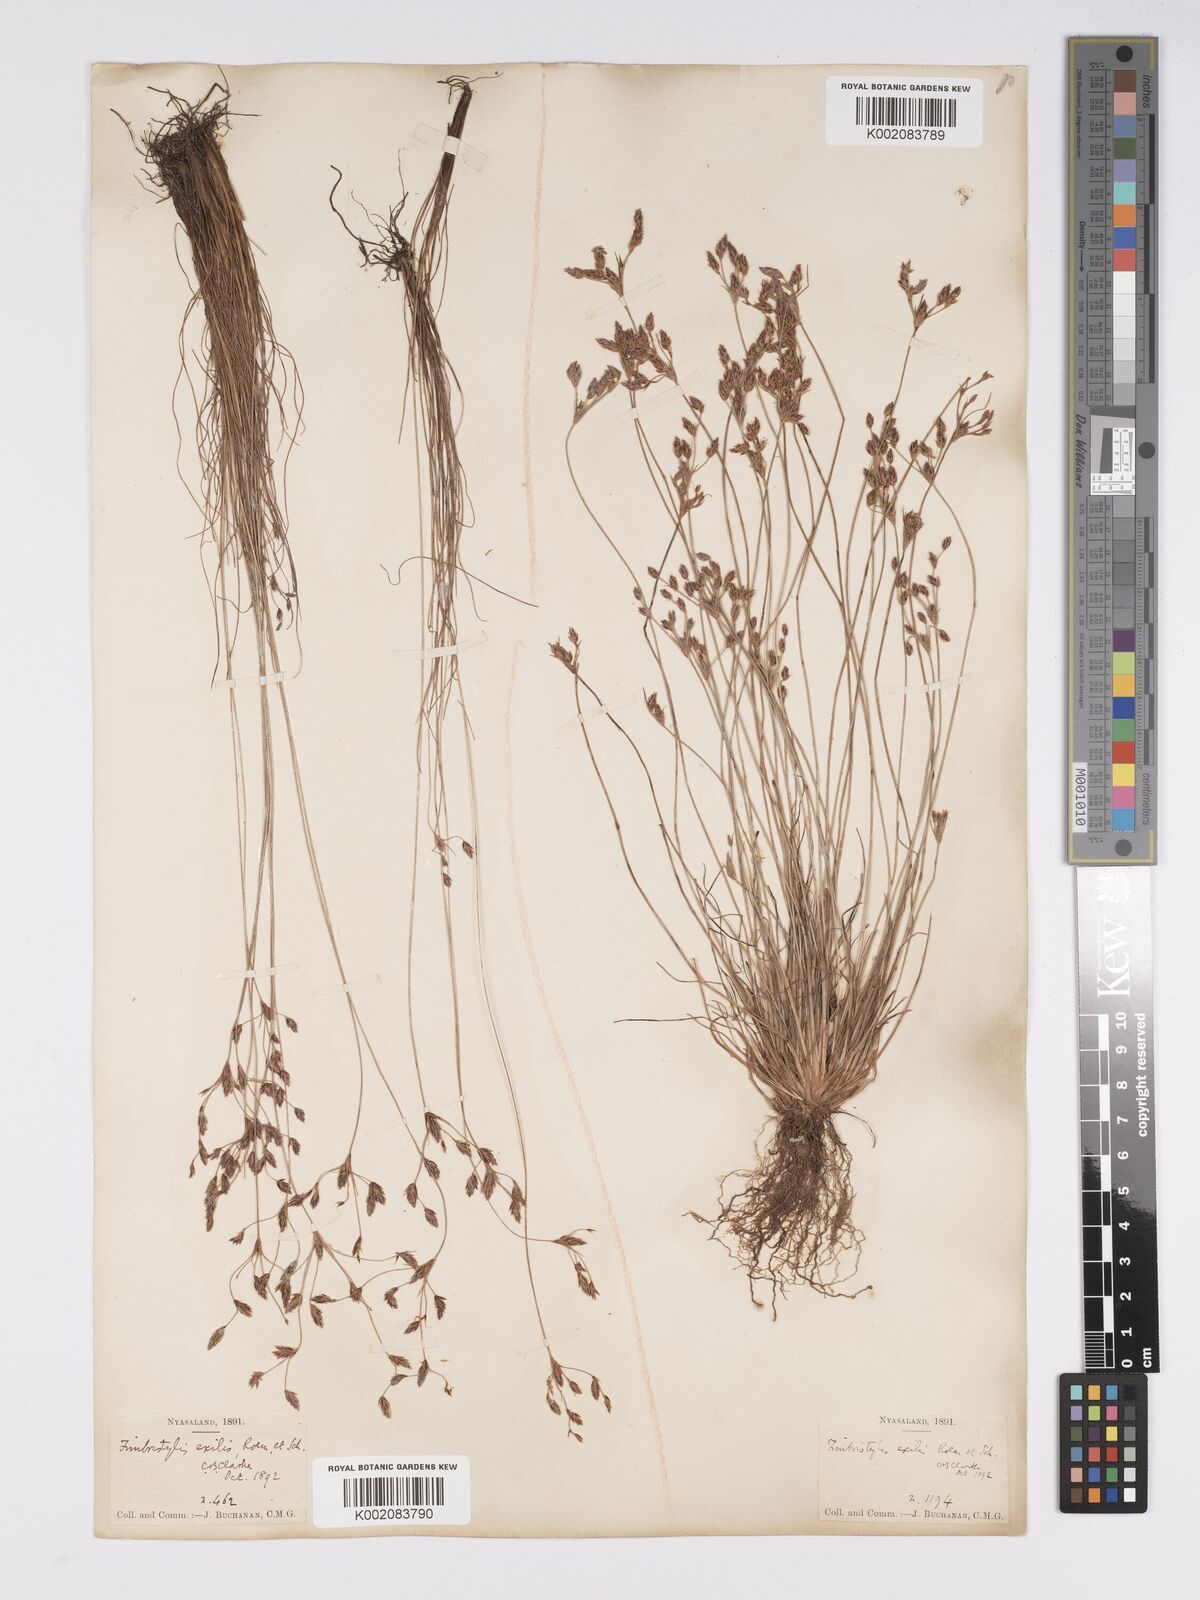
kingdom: Plantae
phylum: Tracheophyta
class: Liliopsida
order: Poales
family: Cyperaceae
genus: Bulbostylis
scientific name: Bulbostylis hispidula
